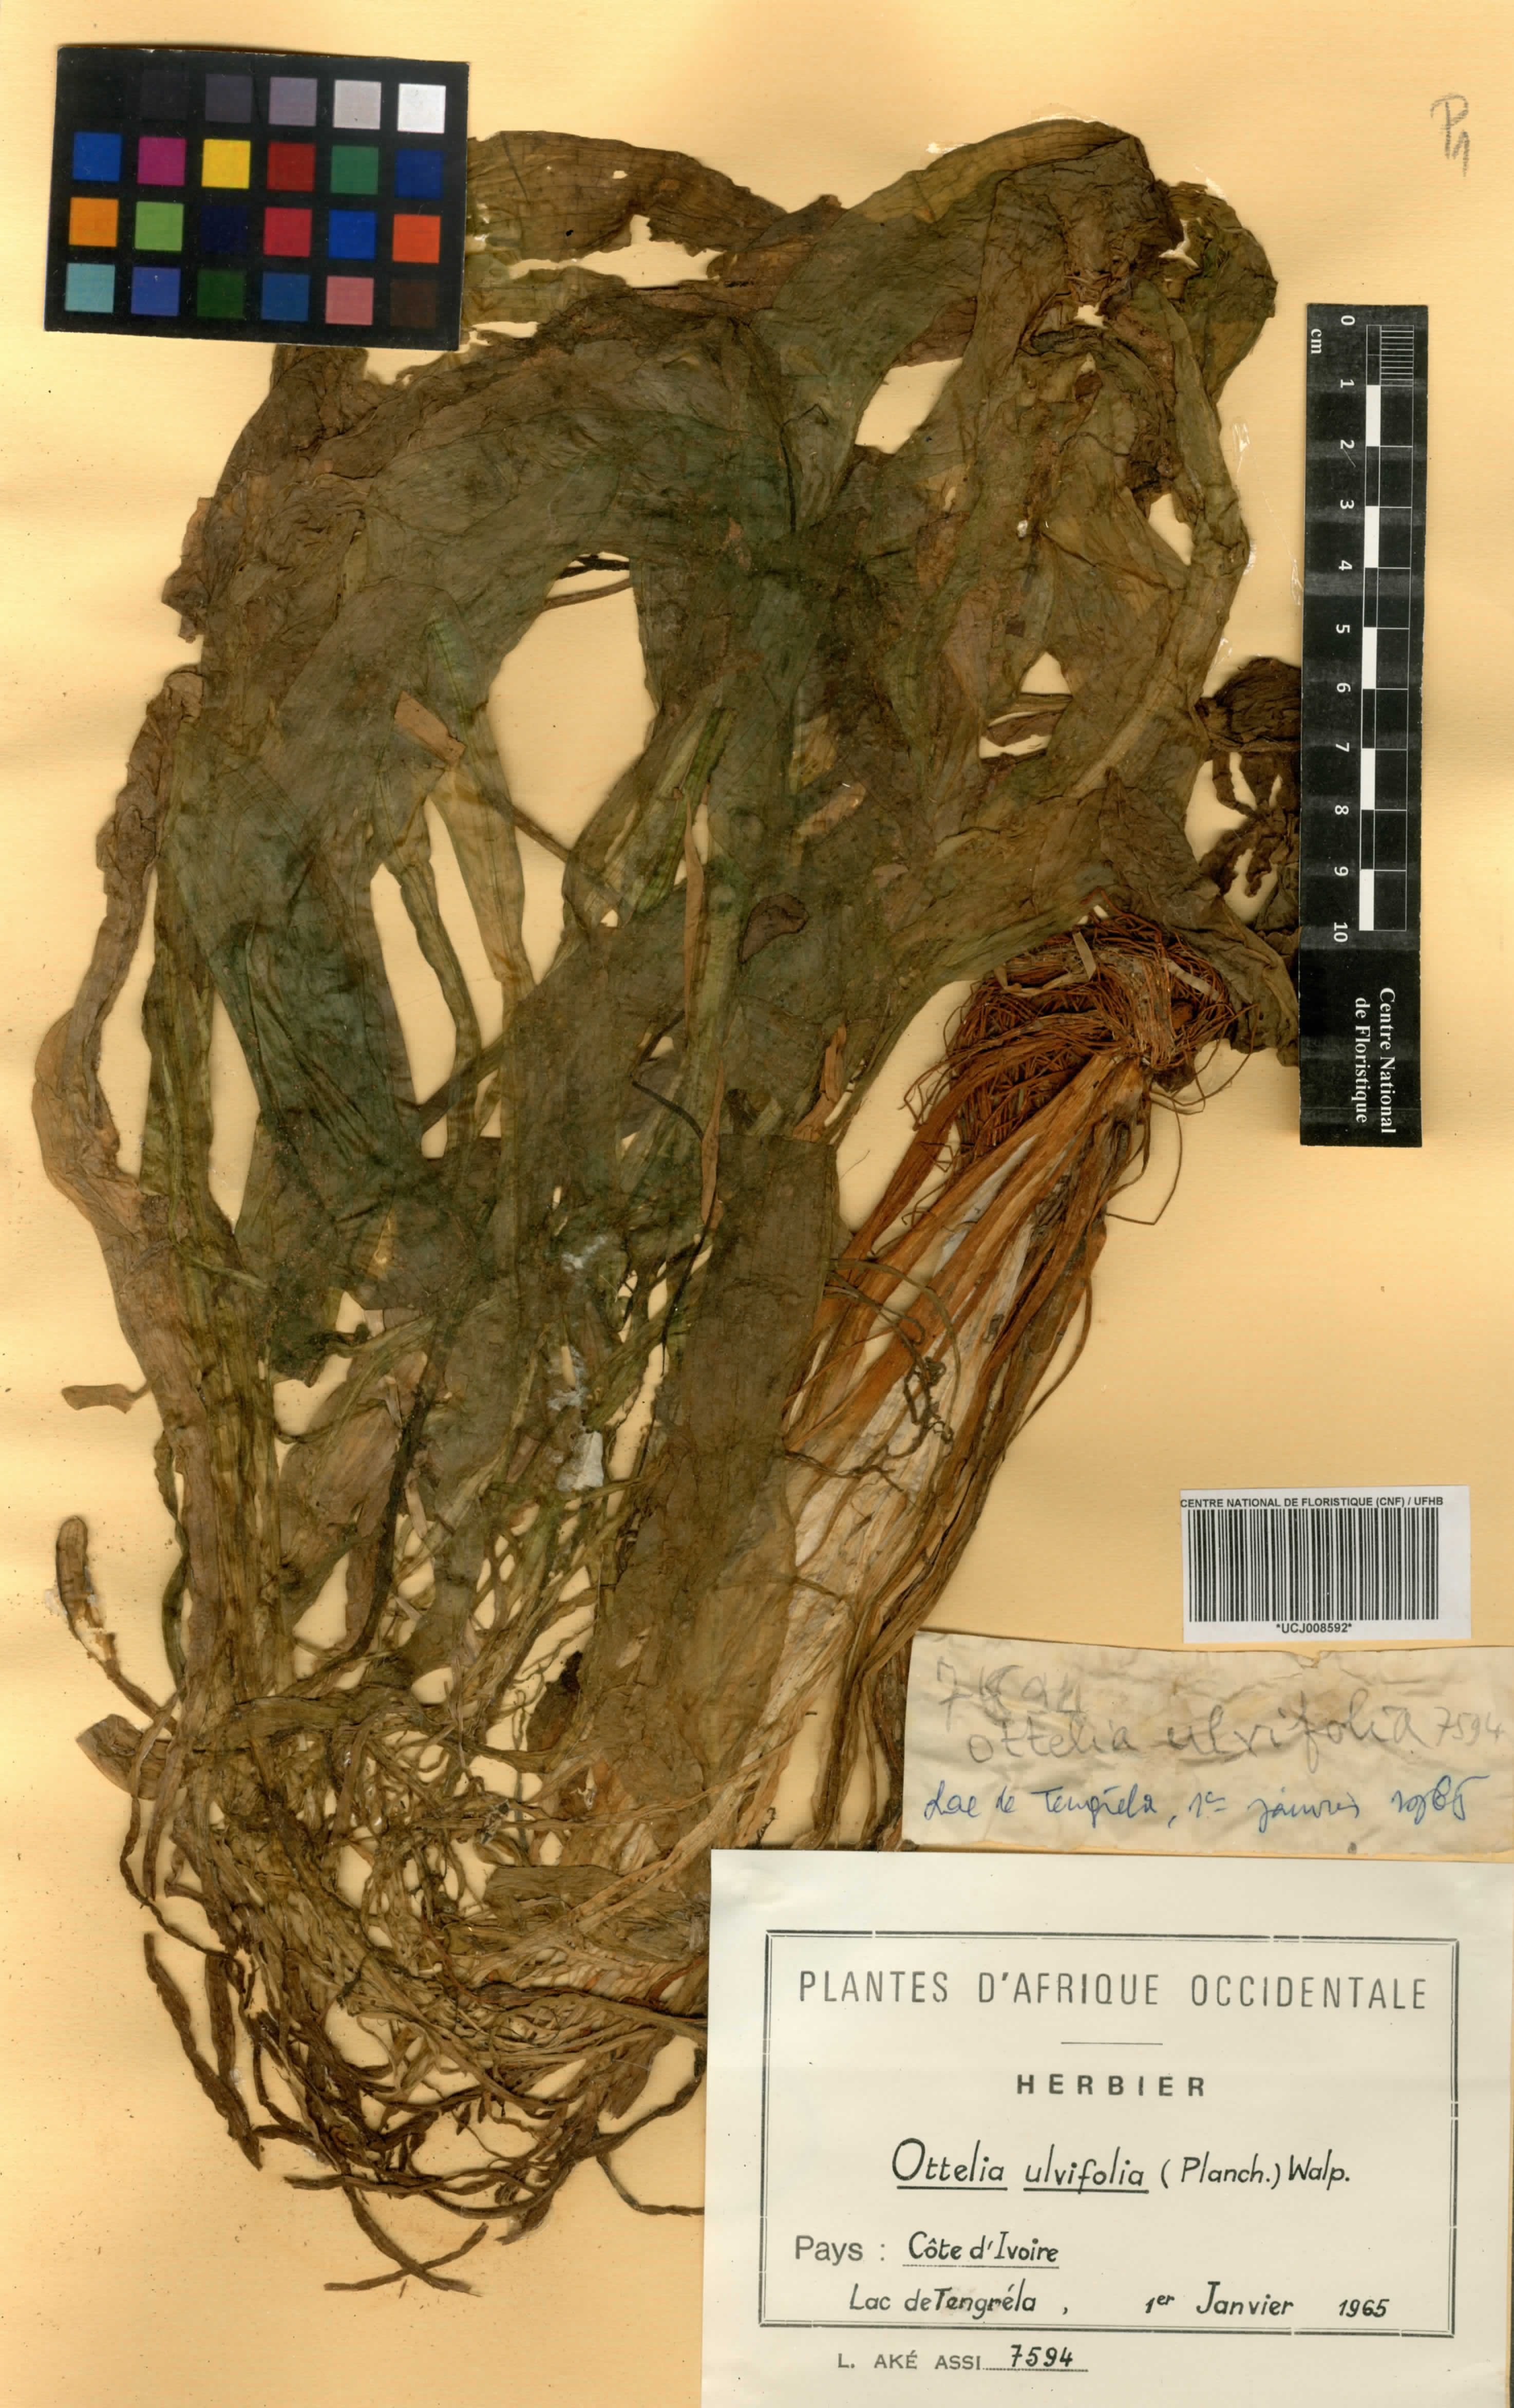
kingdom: Plantae
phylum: Tracheophyta
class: Liliopsida
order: Alismatales
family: Hydrocharitaceae
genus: Ottelia
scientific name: Ottelia ulvifolia
